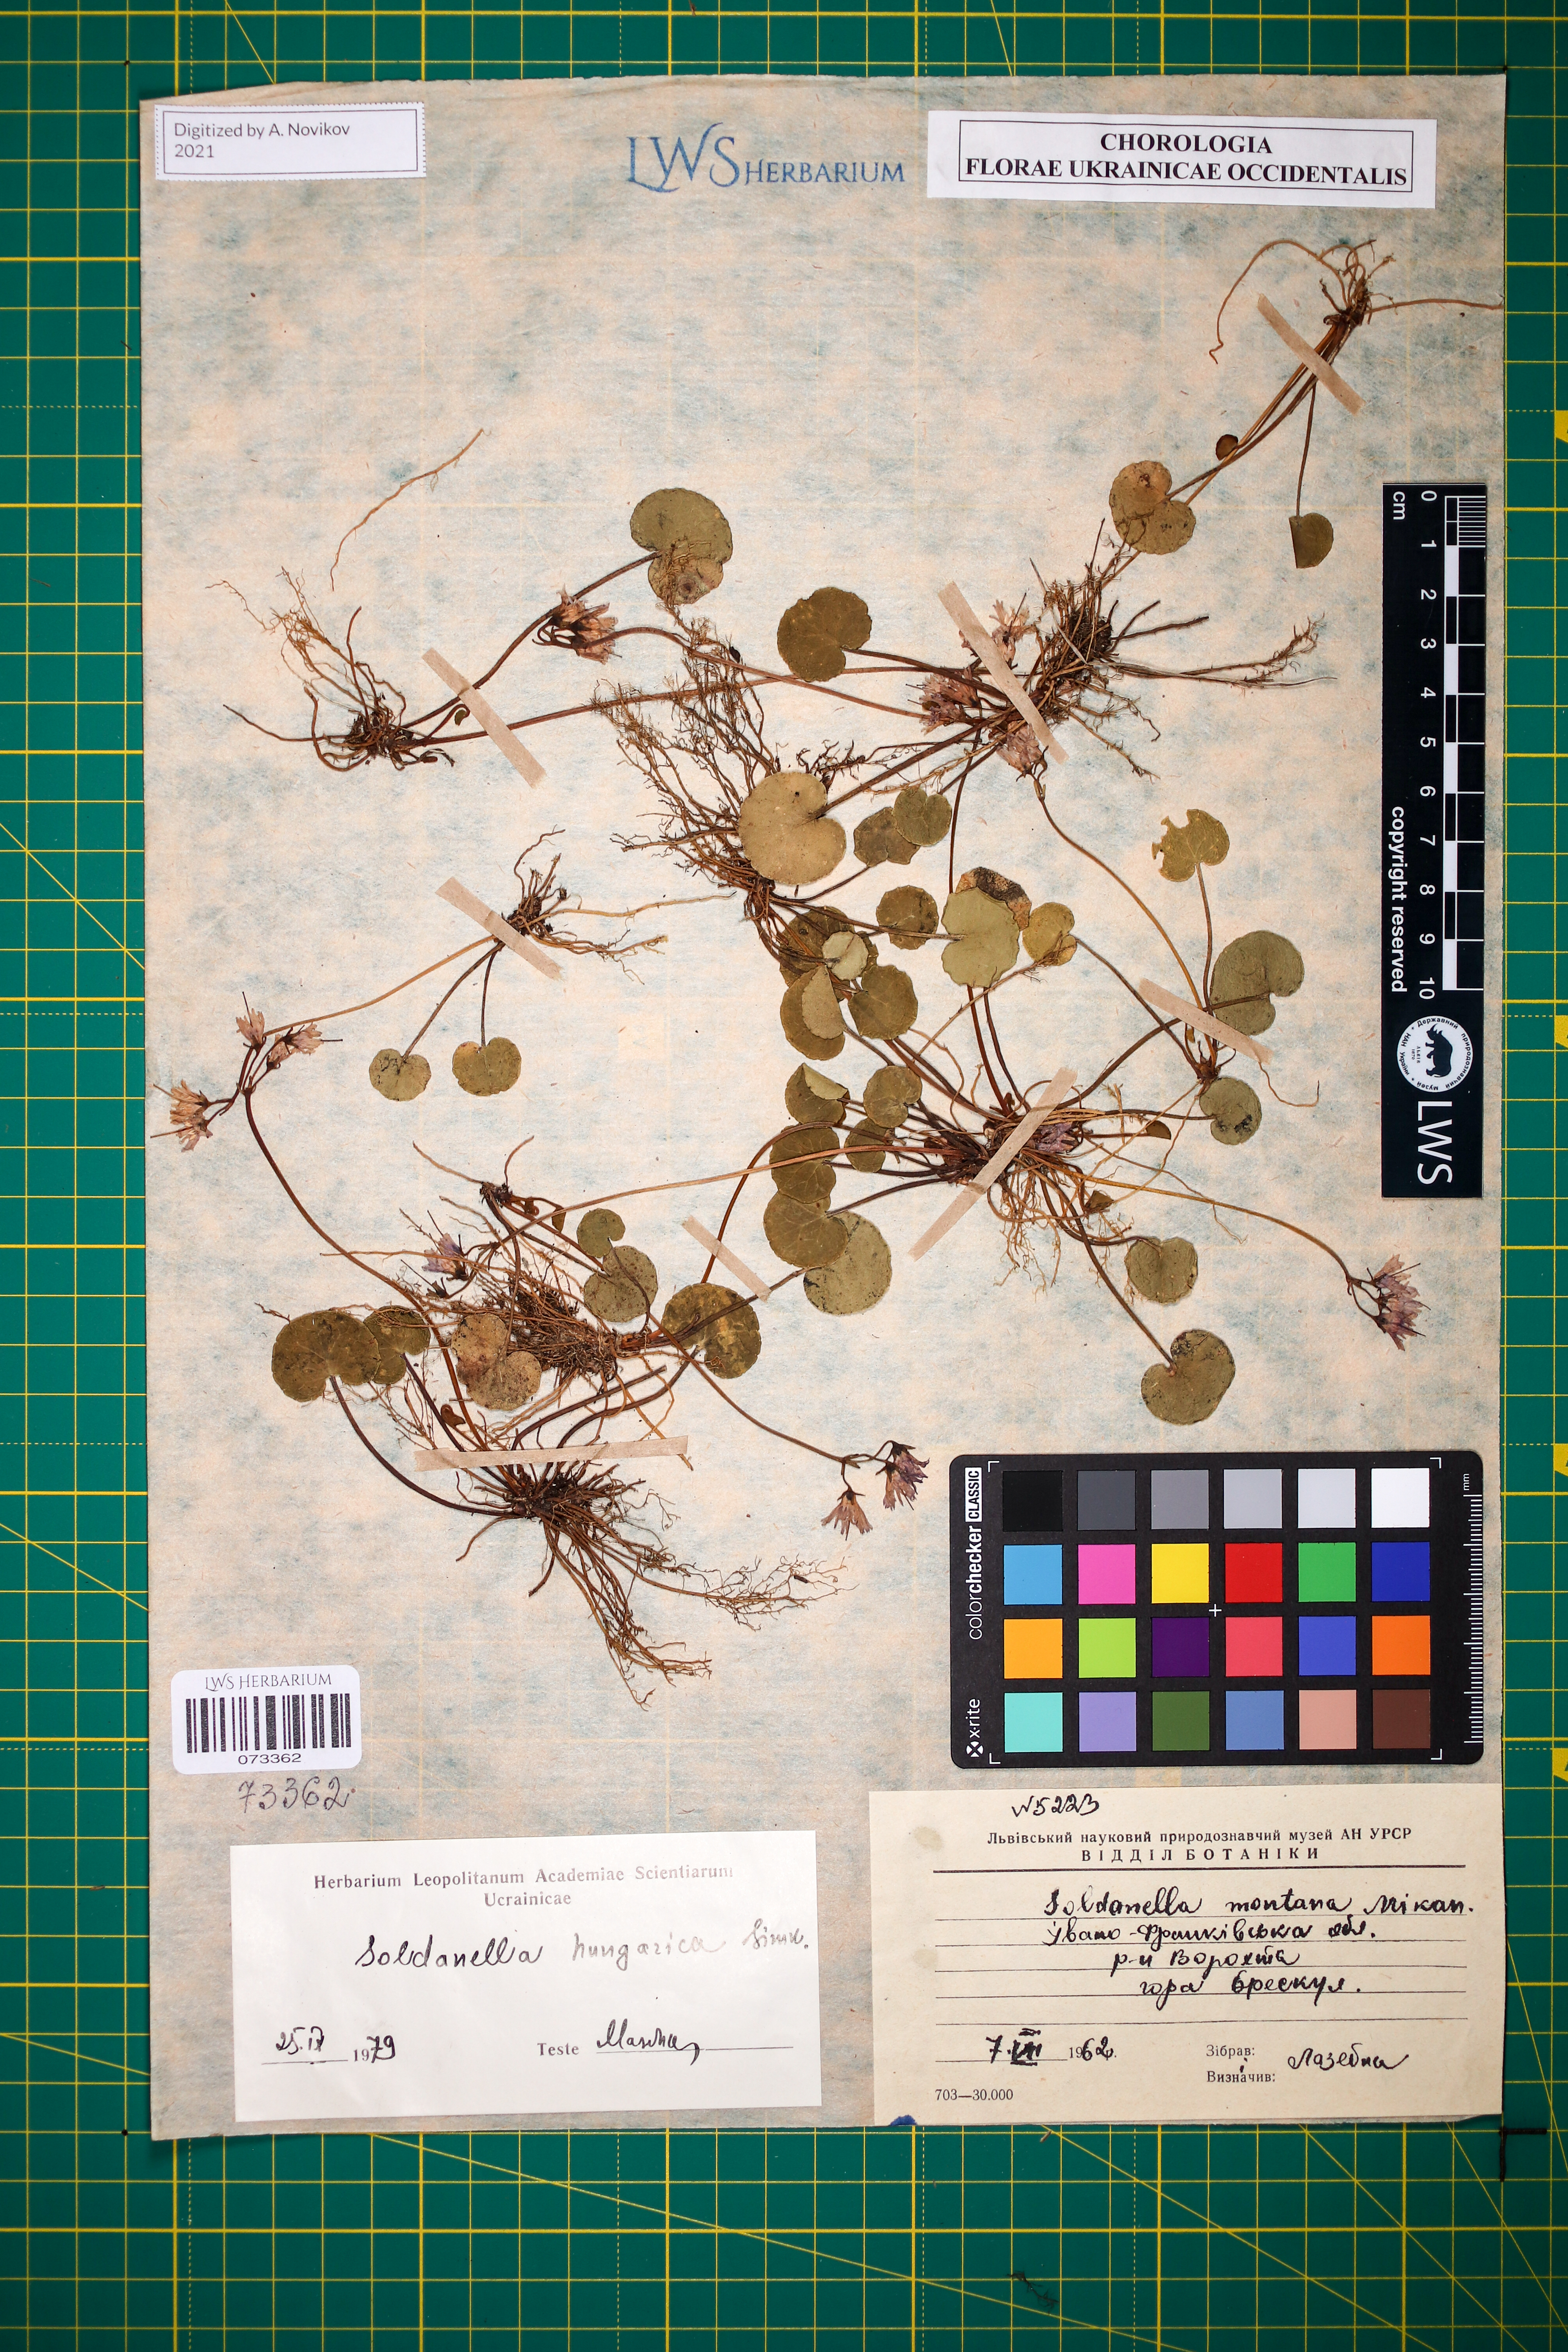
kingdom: Plantae
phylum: Tracheophyta
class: Magnoliopsida
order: Ericales
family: Primulaceae
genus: Soldanella
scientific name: Soldanella hungarica
